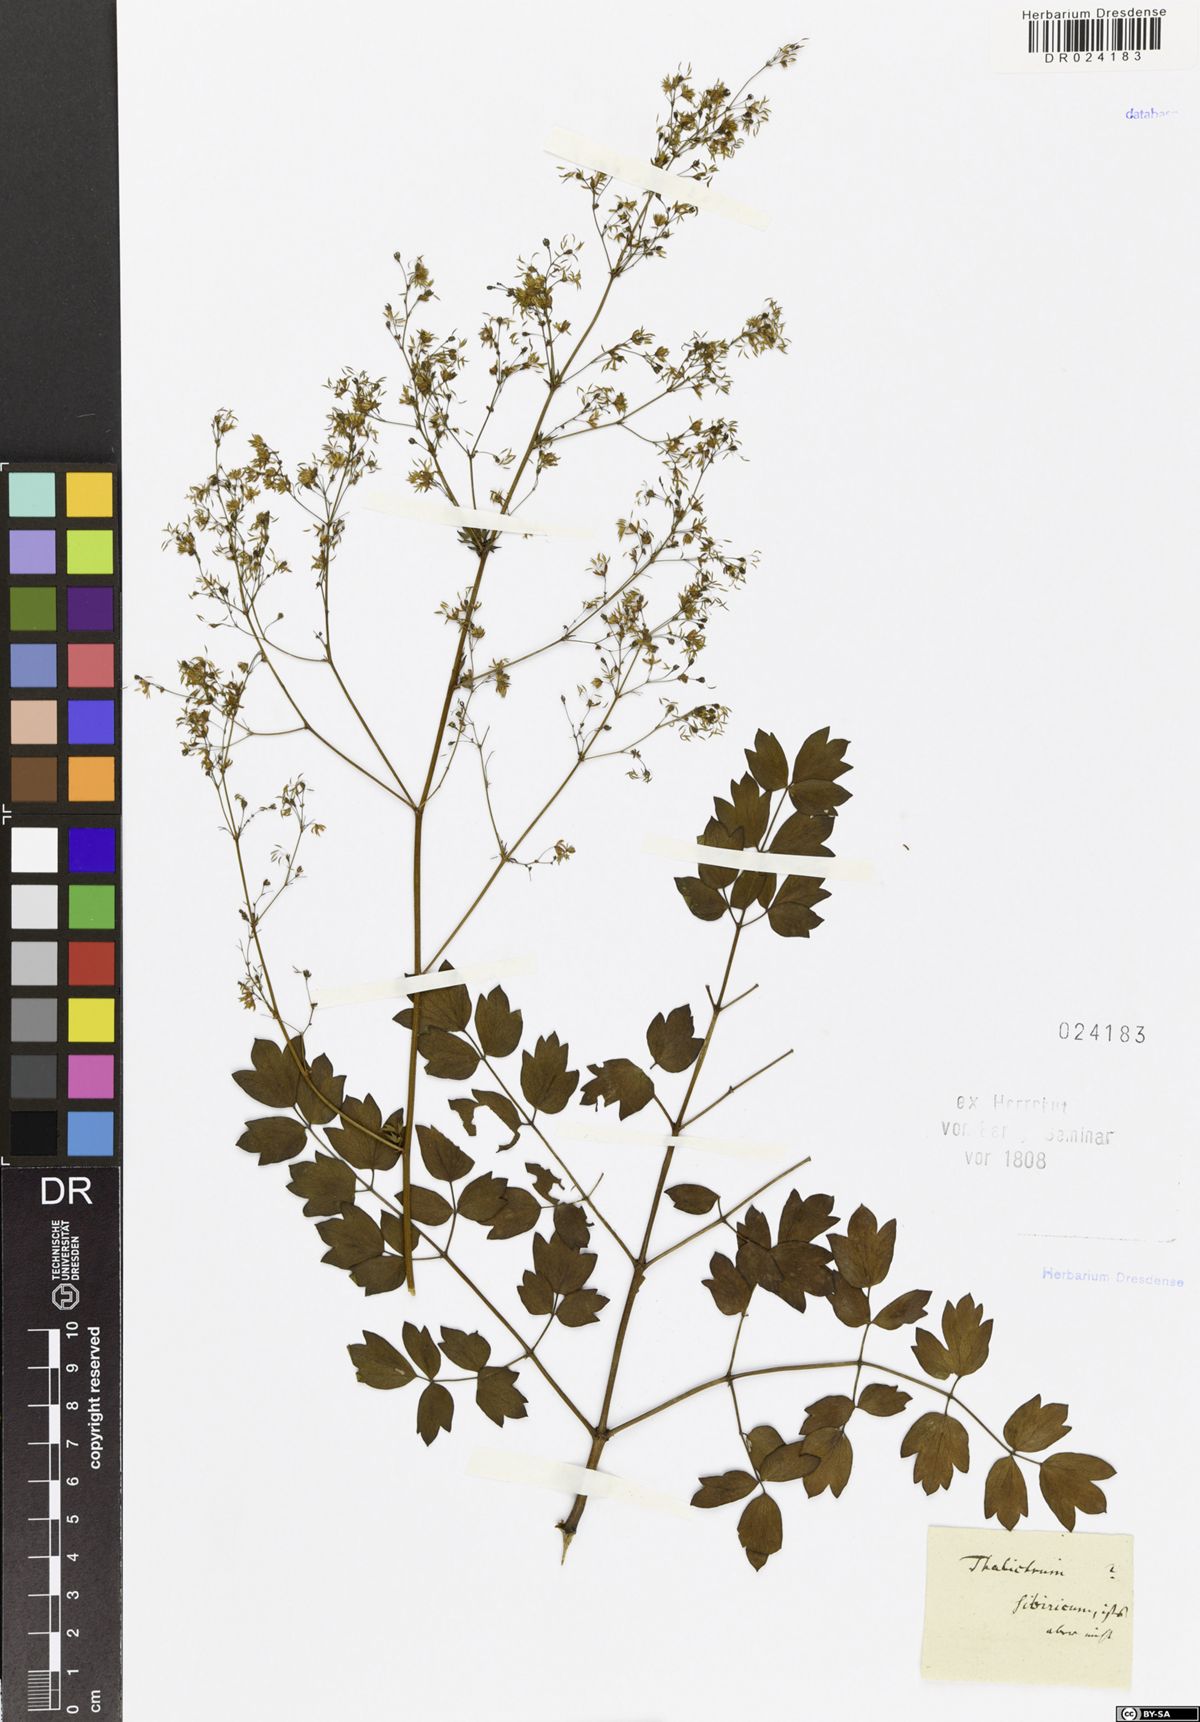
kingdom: Plantae
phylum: Tracheophyta
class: Magnoliopsida
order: Ranunculales
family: Ranunculaceae
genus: Thalictrum
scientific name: Thalictrum minus
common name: Lesser meadow-rue
